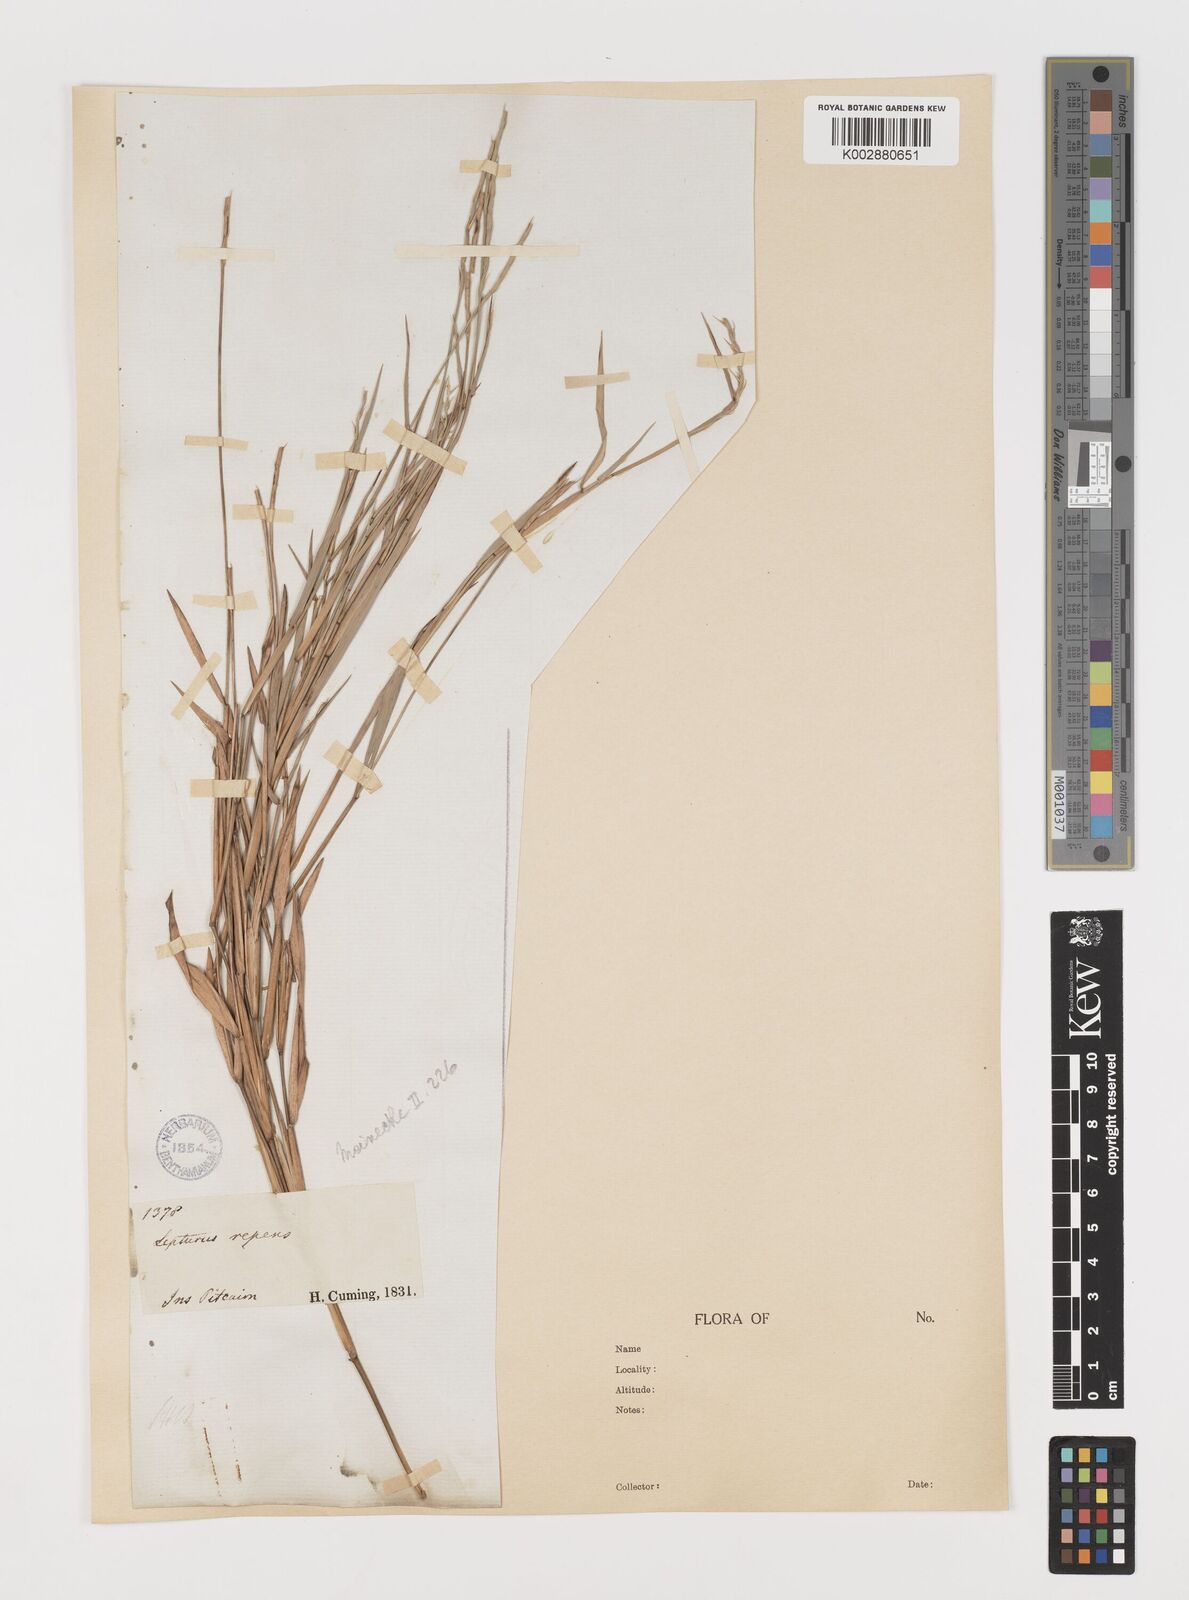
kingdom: Plantae
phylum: Tracheophyta
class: Liliopsida
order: Poales
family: Poaceae
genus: Lepturus
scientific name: Lepturus
